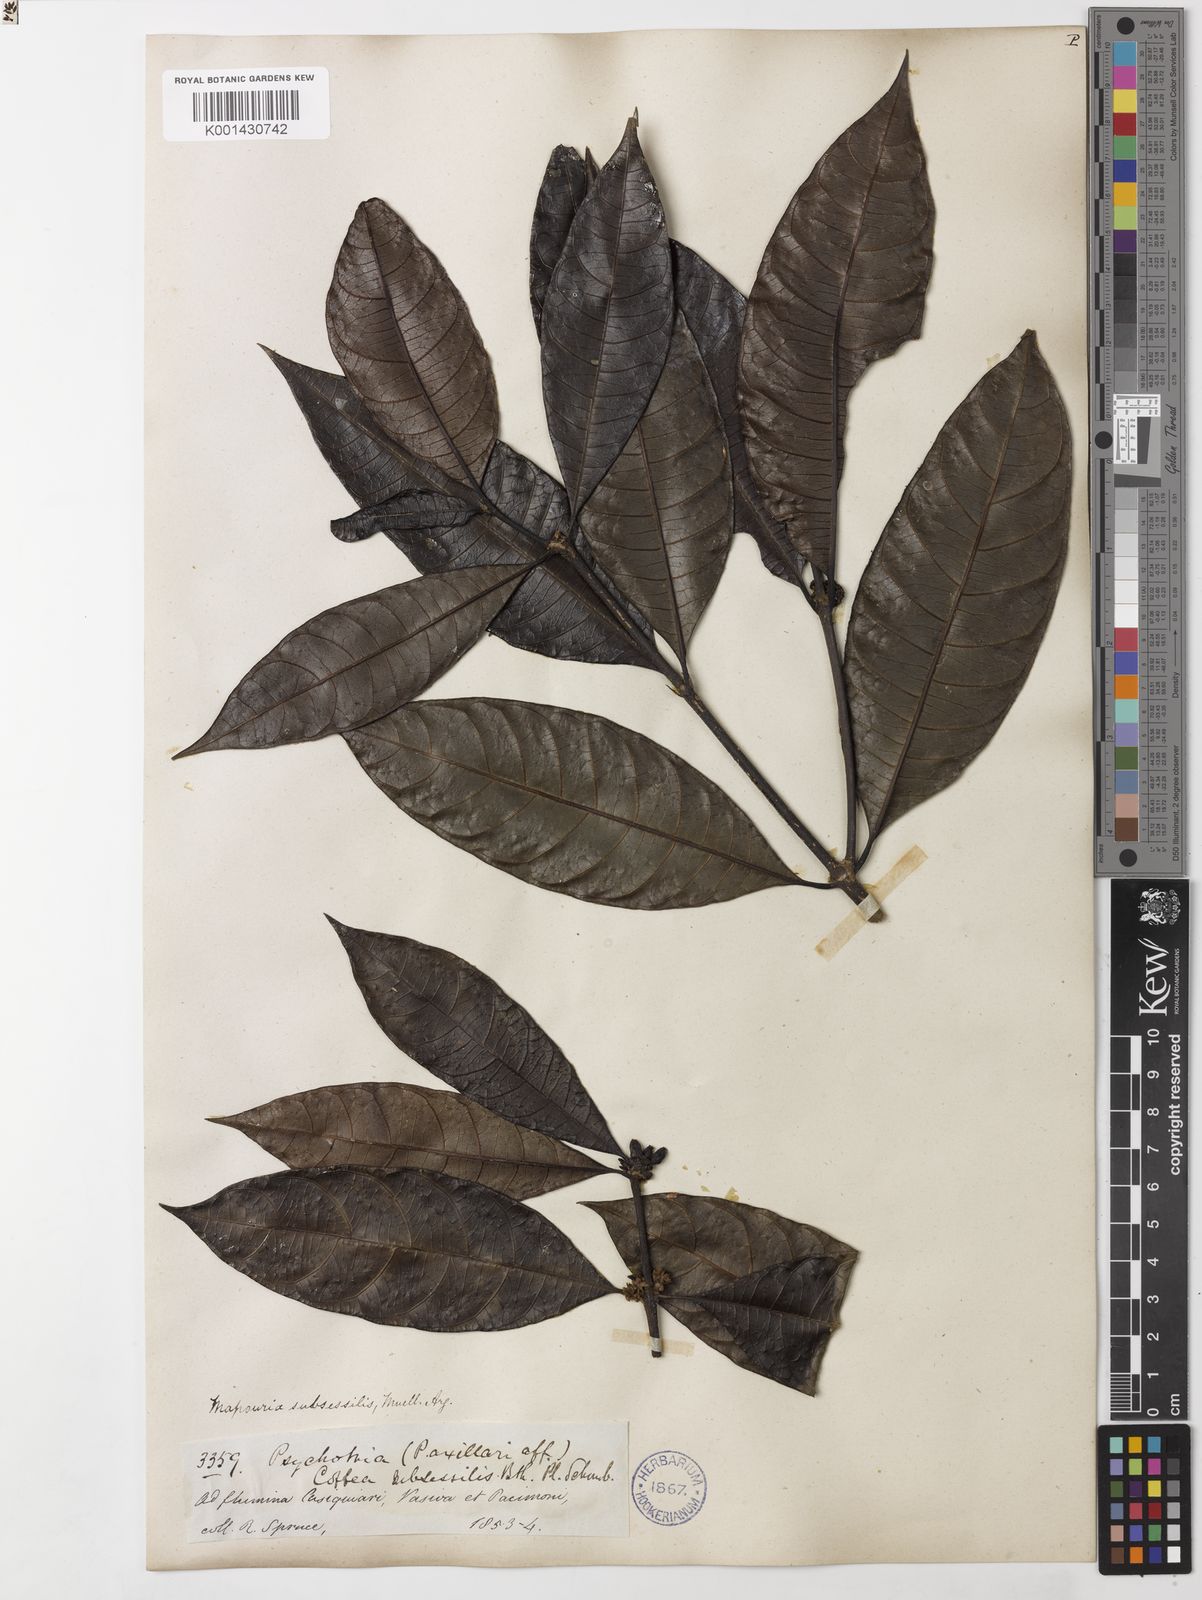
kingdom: Plantae
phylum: Tracheophyta
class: Magnoliopsida
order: Gentianales
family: Rubiaceae
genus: Ronabea
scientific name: Ronabea latifolia
